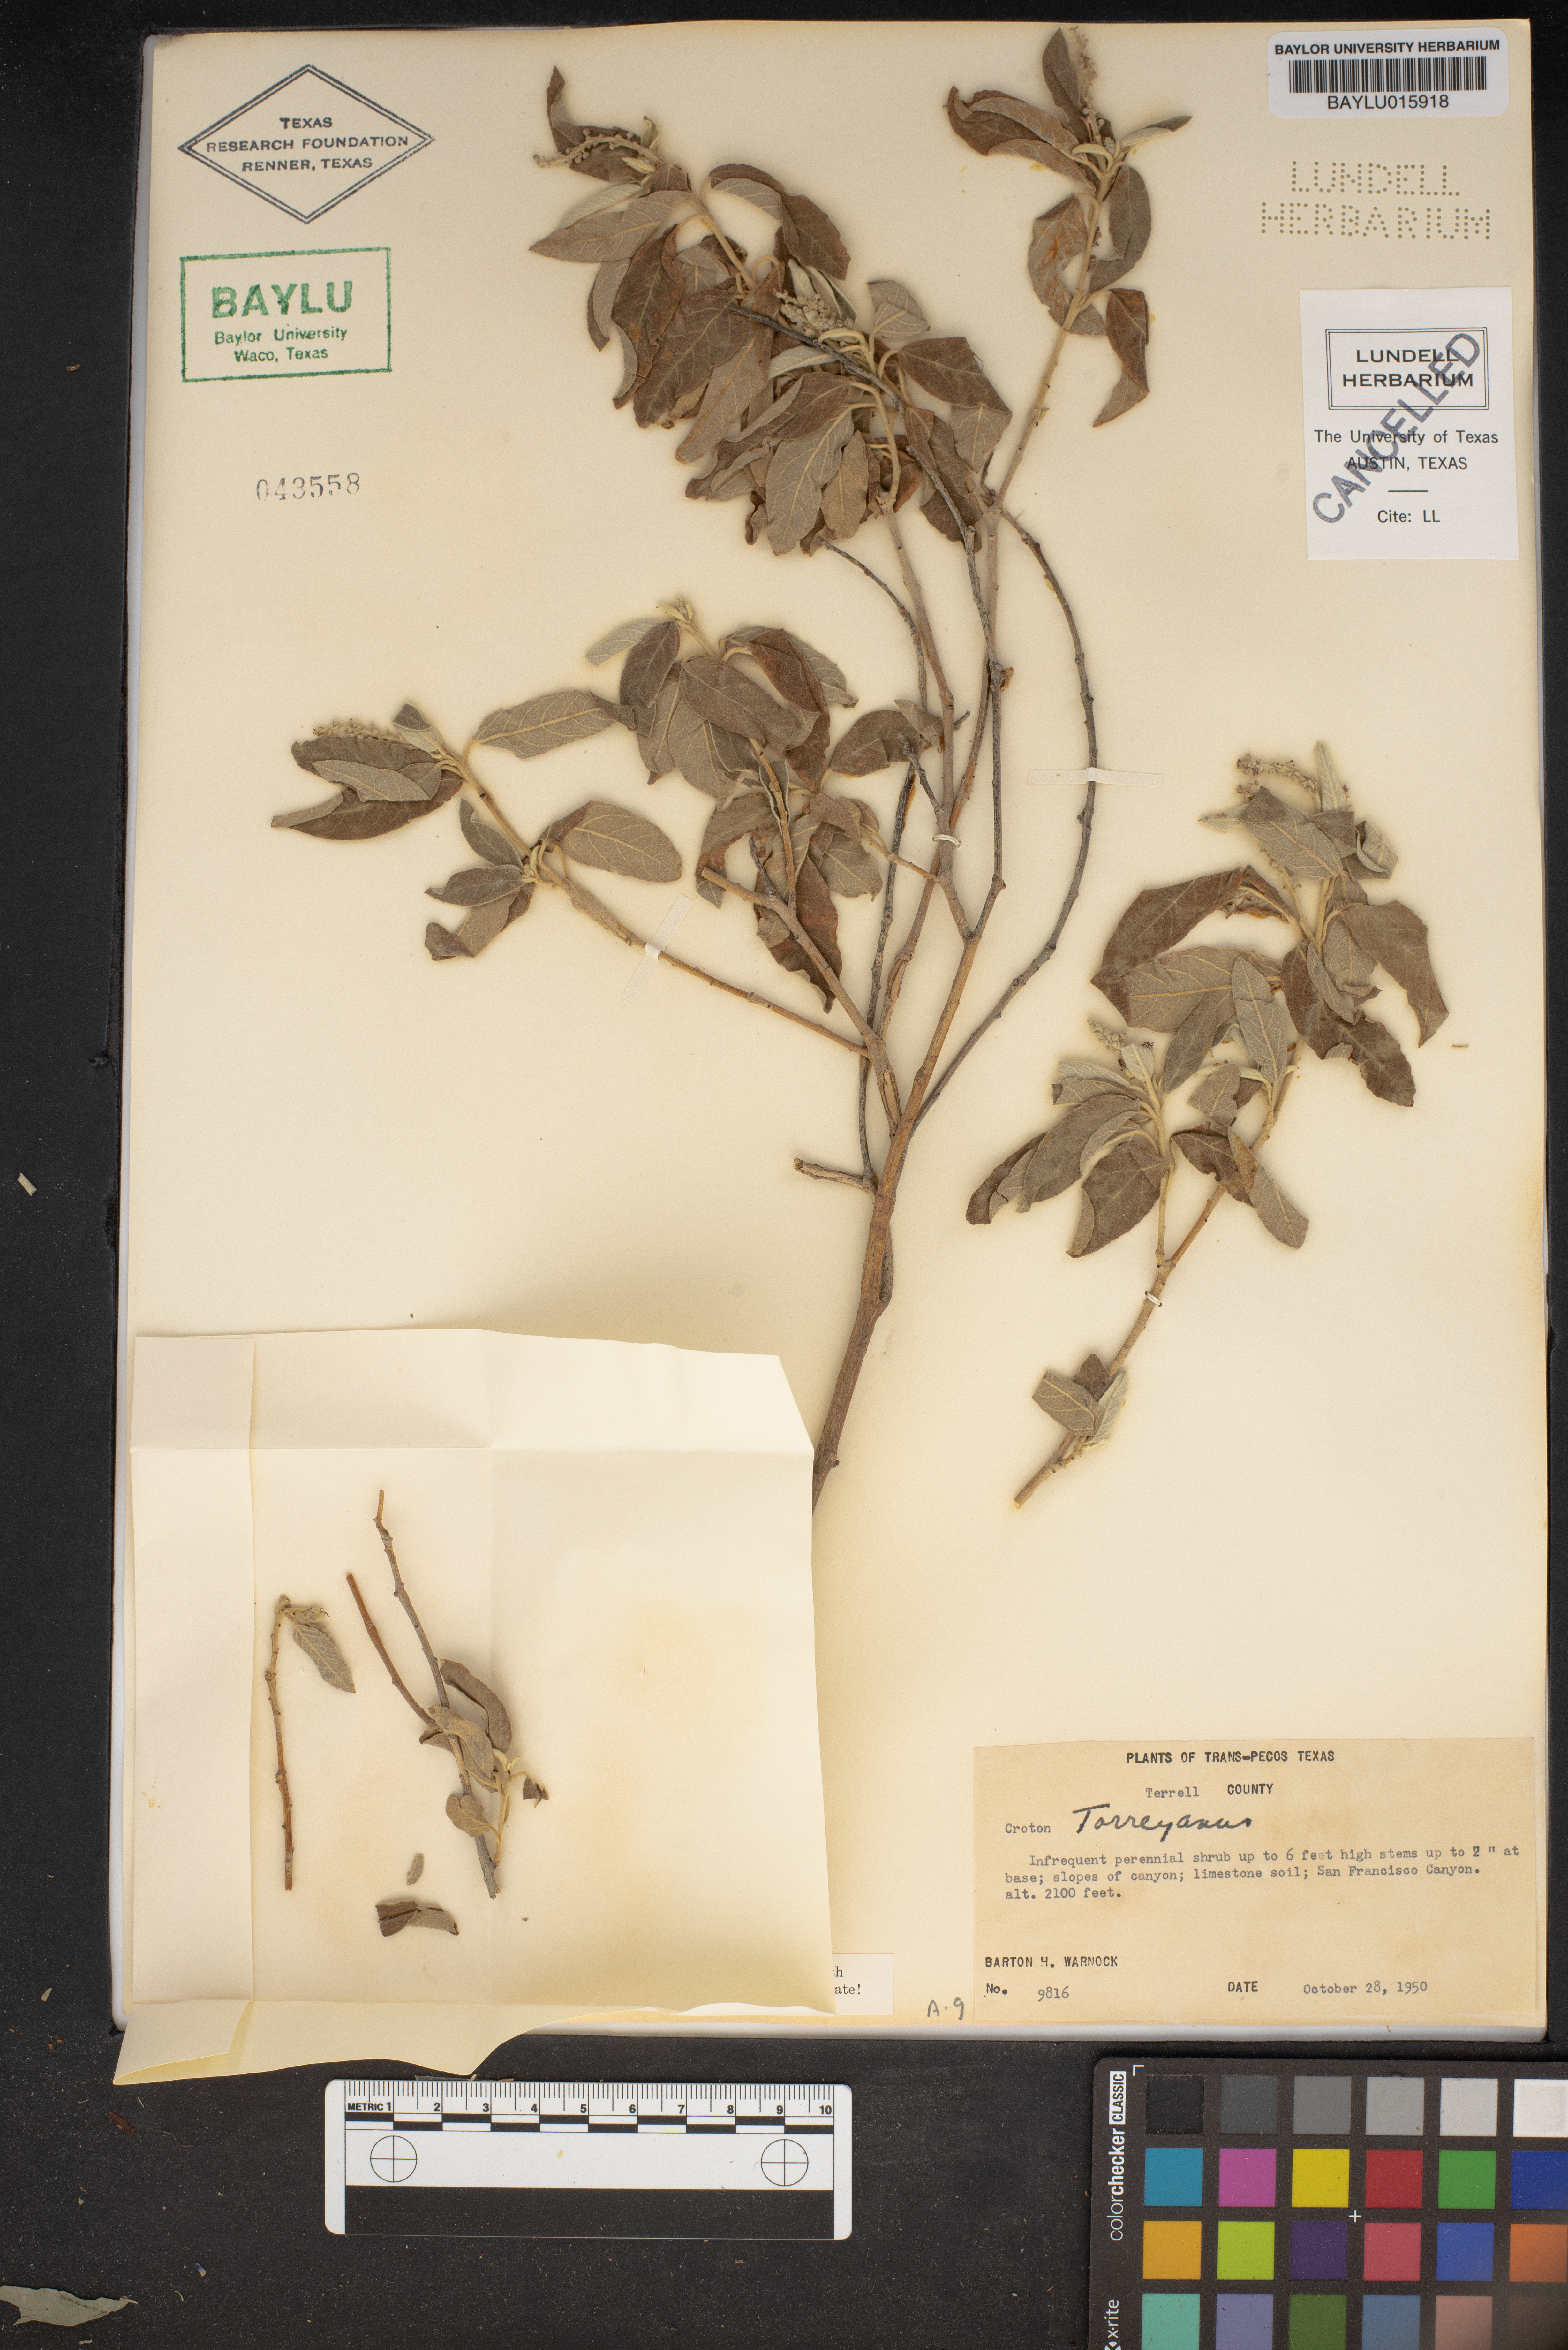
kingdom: Plantae
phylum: Tracheophyta
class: Magnoliopsida
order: Malpighiales
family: Euphorbiaceae
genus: Croton
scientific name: Croton incanus
